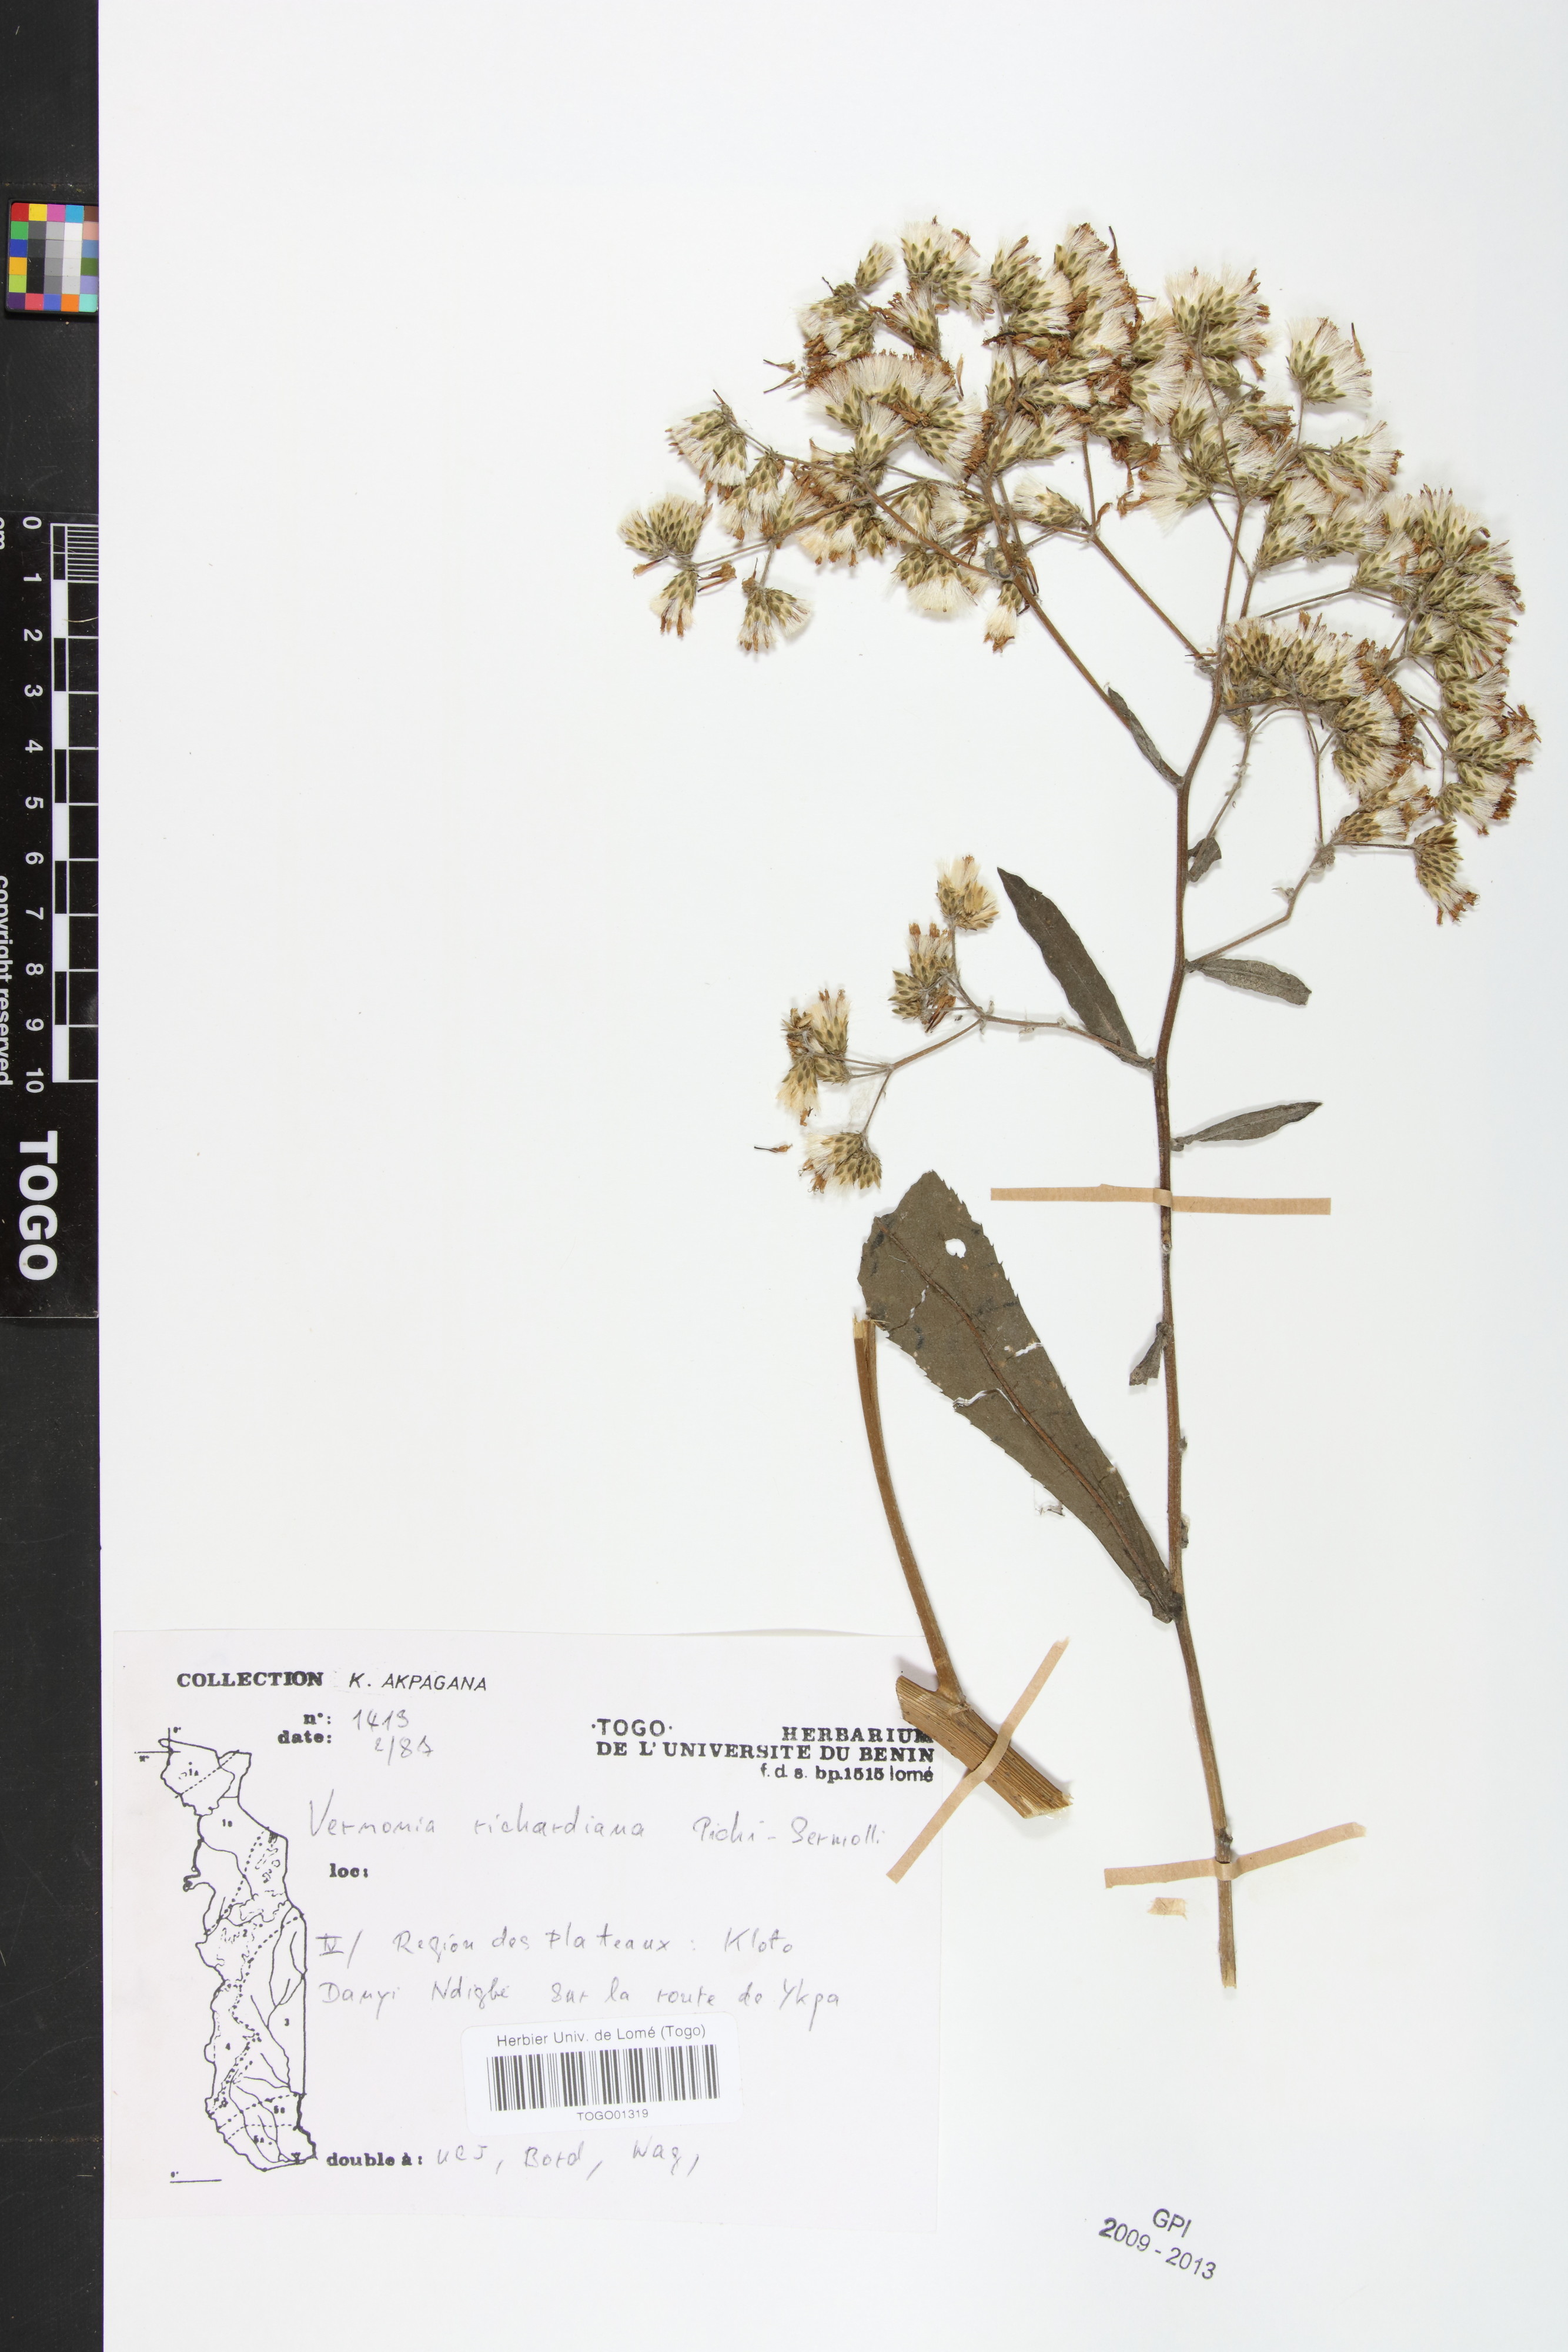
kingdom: Plantae
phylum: Tracheophyta
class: Magnoliopsida
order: Asterales
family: Asteraceae
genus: Gymnanthemum
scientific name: Gymnanthemum theophrastifolium
